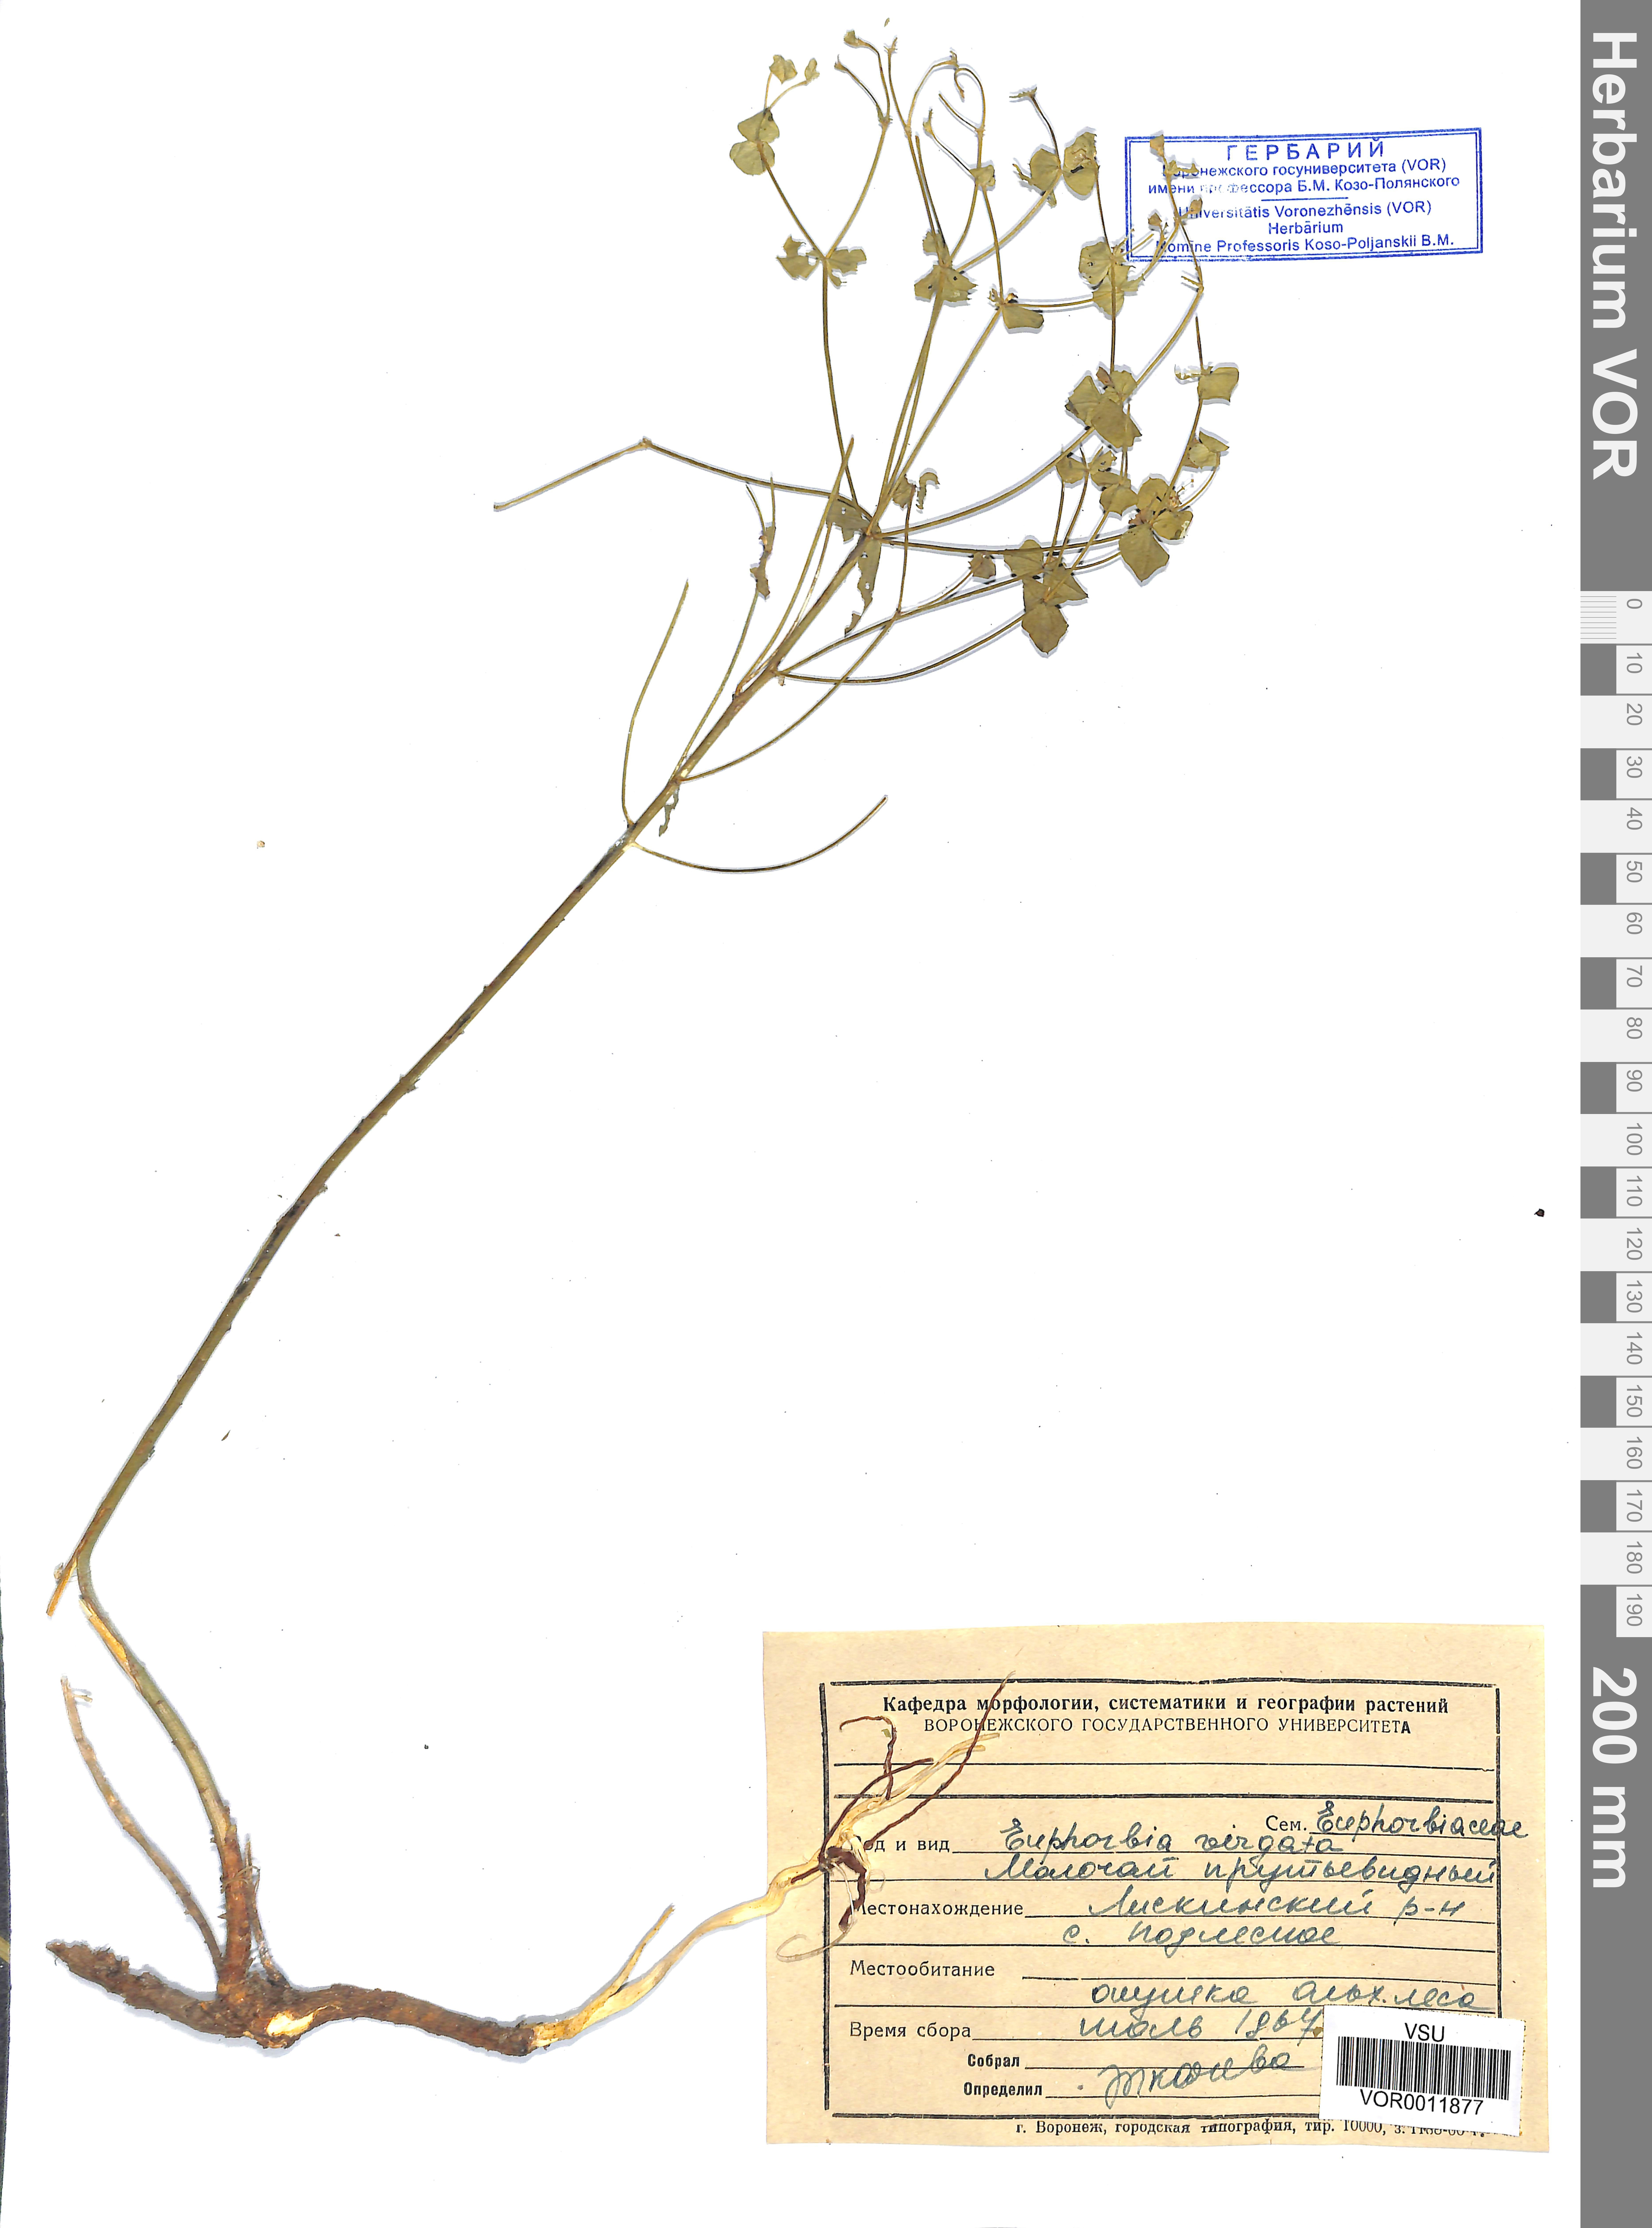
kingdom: Plantae
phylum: Tracheophyta
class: Magnoliopsida
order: Malpighiales
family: Euphorbiaceae
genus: Euphorbia
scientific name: Euphorbia virgata
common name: Leafy spurge
